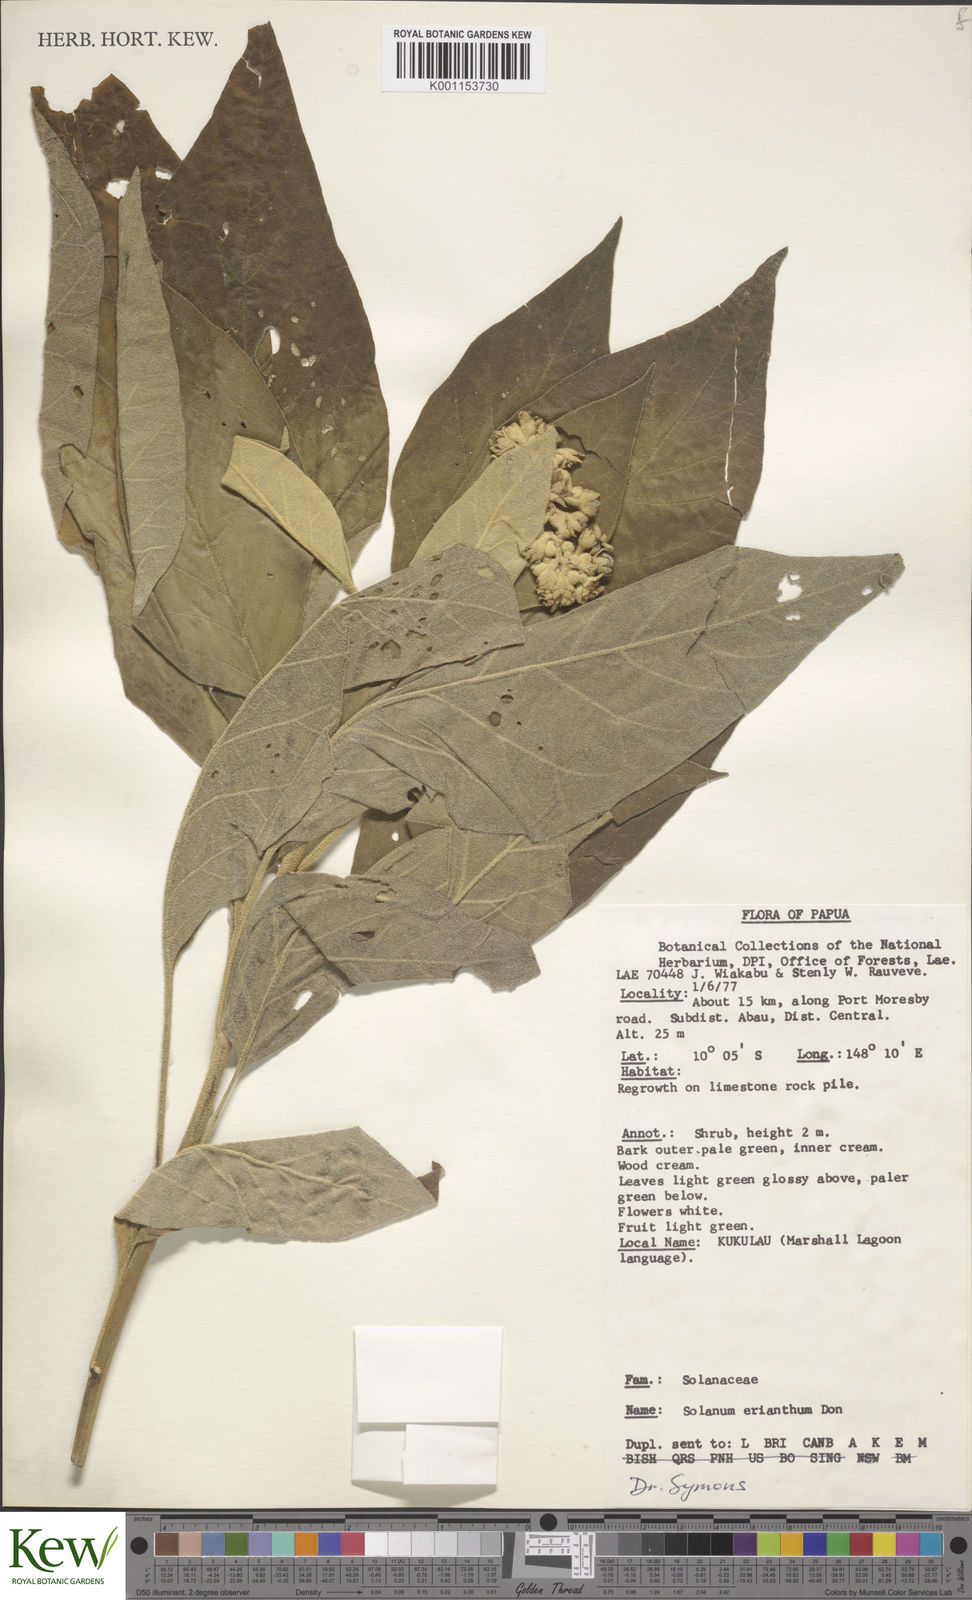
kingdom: Plantae
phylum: Tracheophyta
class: Magnoliopsida
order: Solanales
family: Solanaceae
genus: Solanum
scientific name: Solanum erianthum
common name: Tobacco-tree
